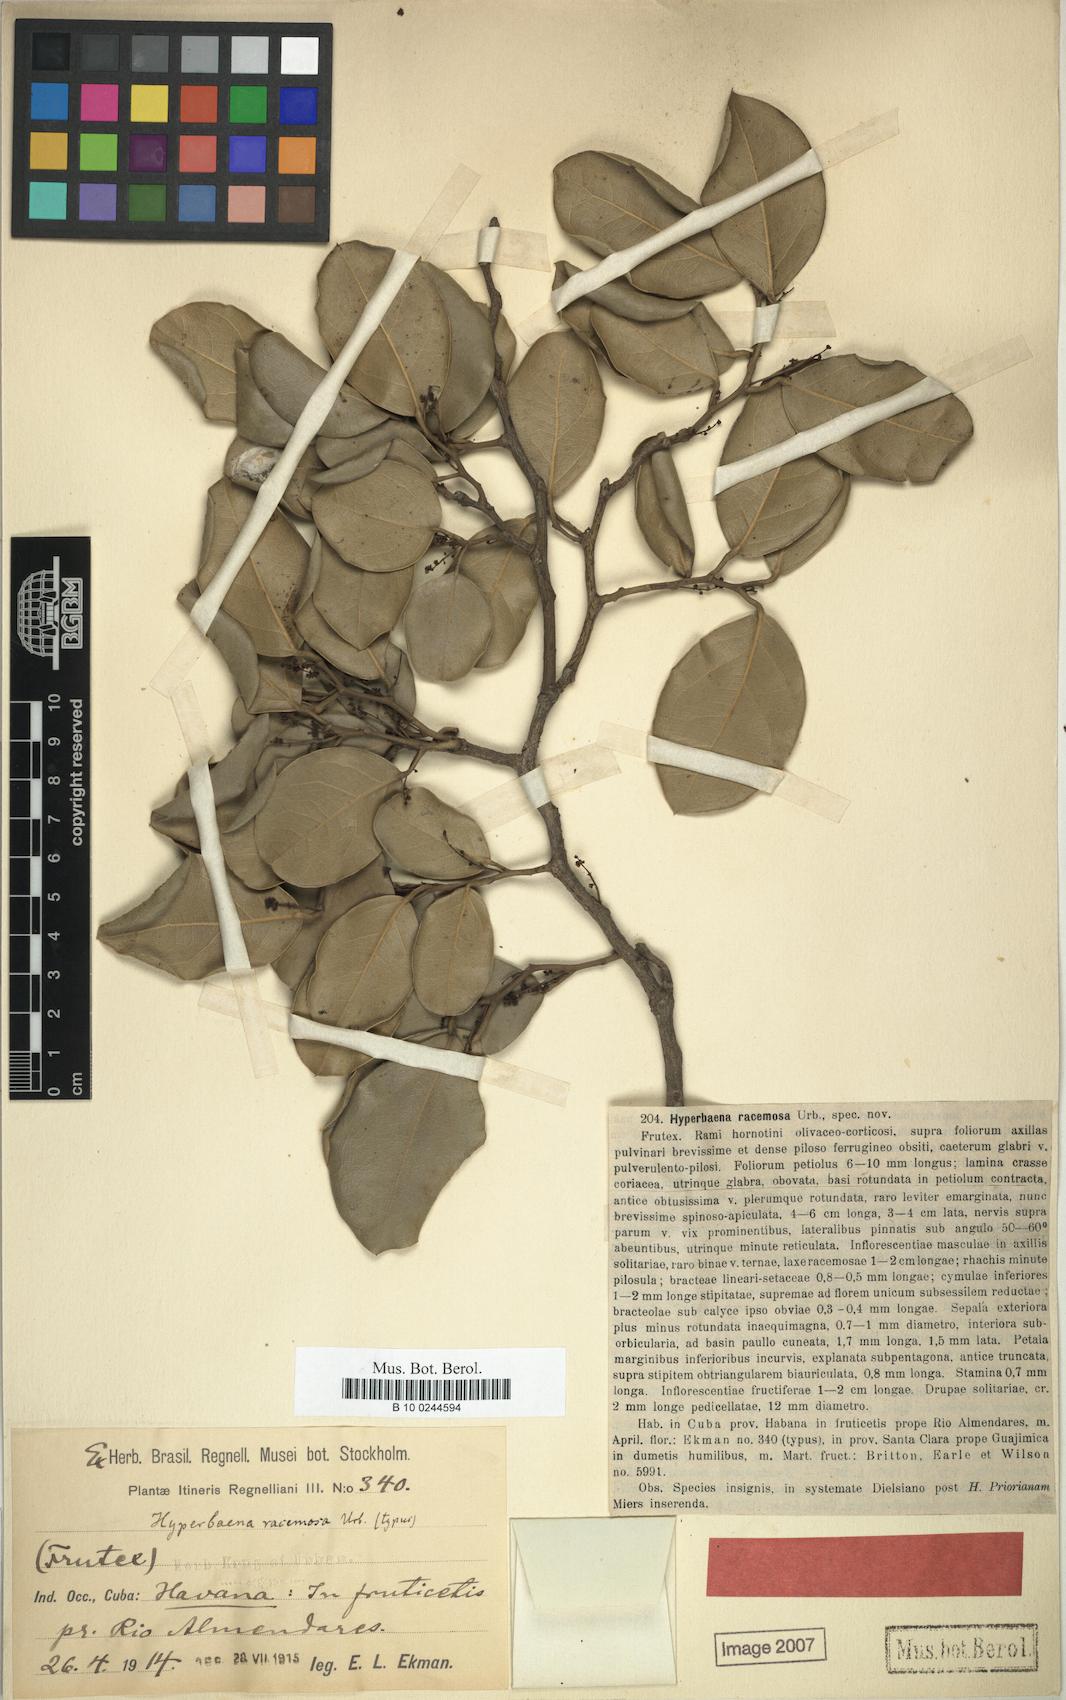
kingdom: Plantae
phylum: Tracheophyta
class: Magnoliopsida
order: Ranunculales
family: Menispermaceae
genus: Hyperbaena
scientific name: Hyperbaena cubensis
